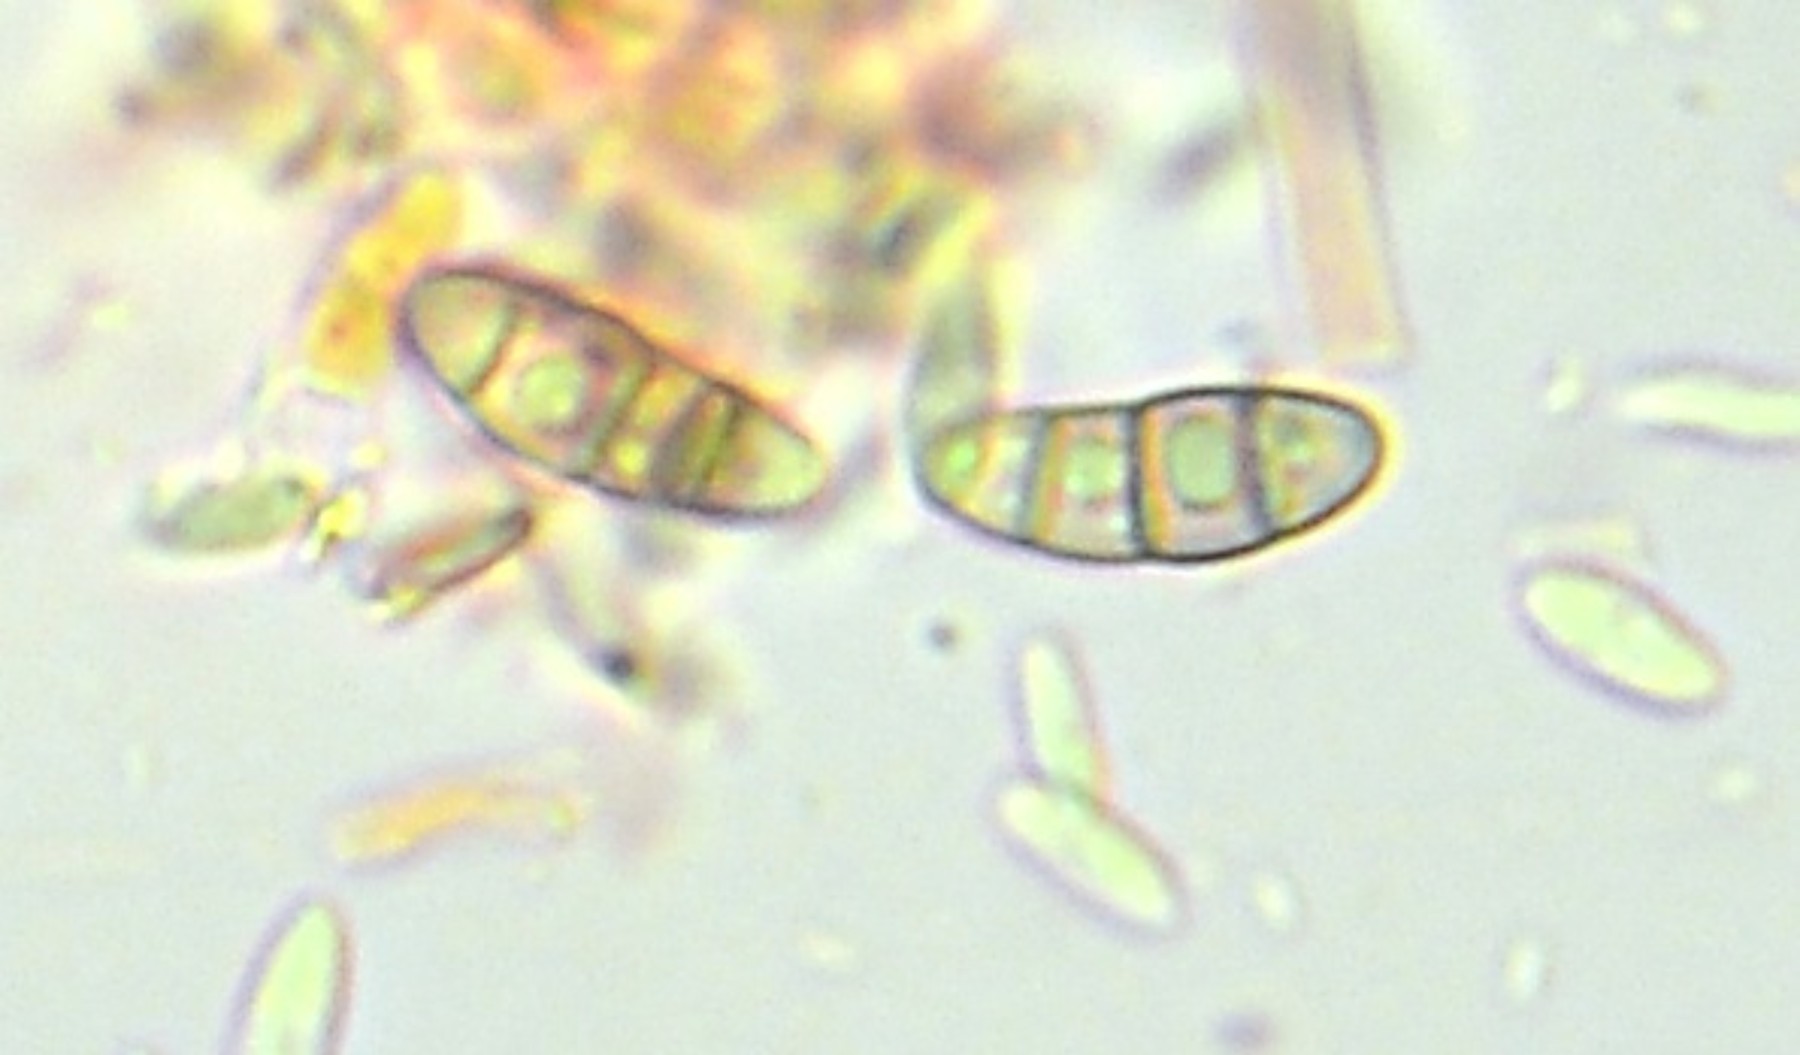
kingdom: Fungi
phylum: Ascomycota
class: Eurotiomycetes
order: Chaetothyriales
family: Herpotrichiellaceae
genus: Capronia
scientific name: Capronia
